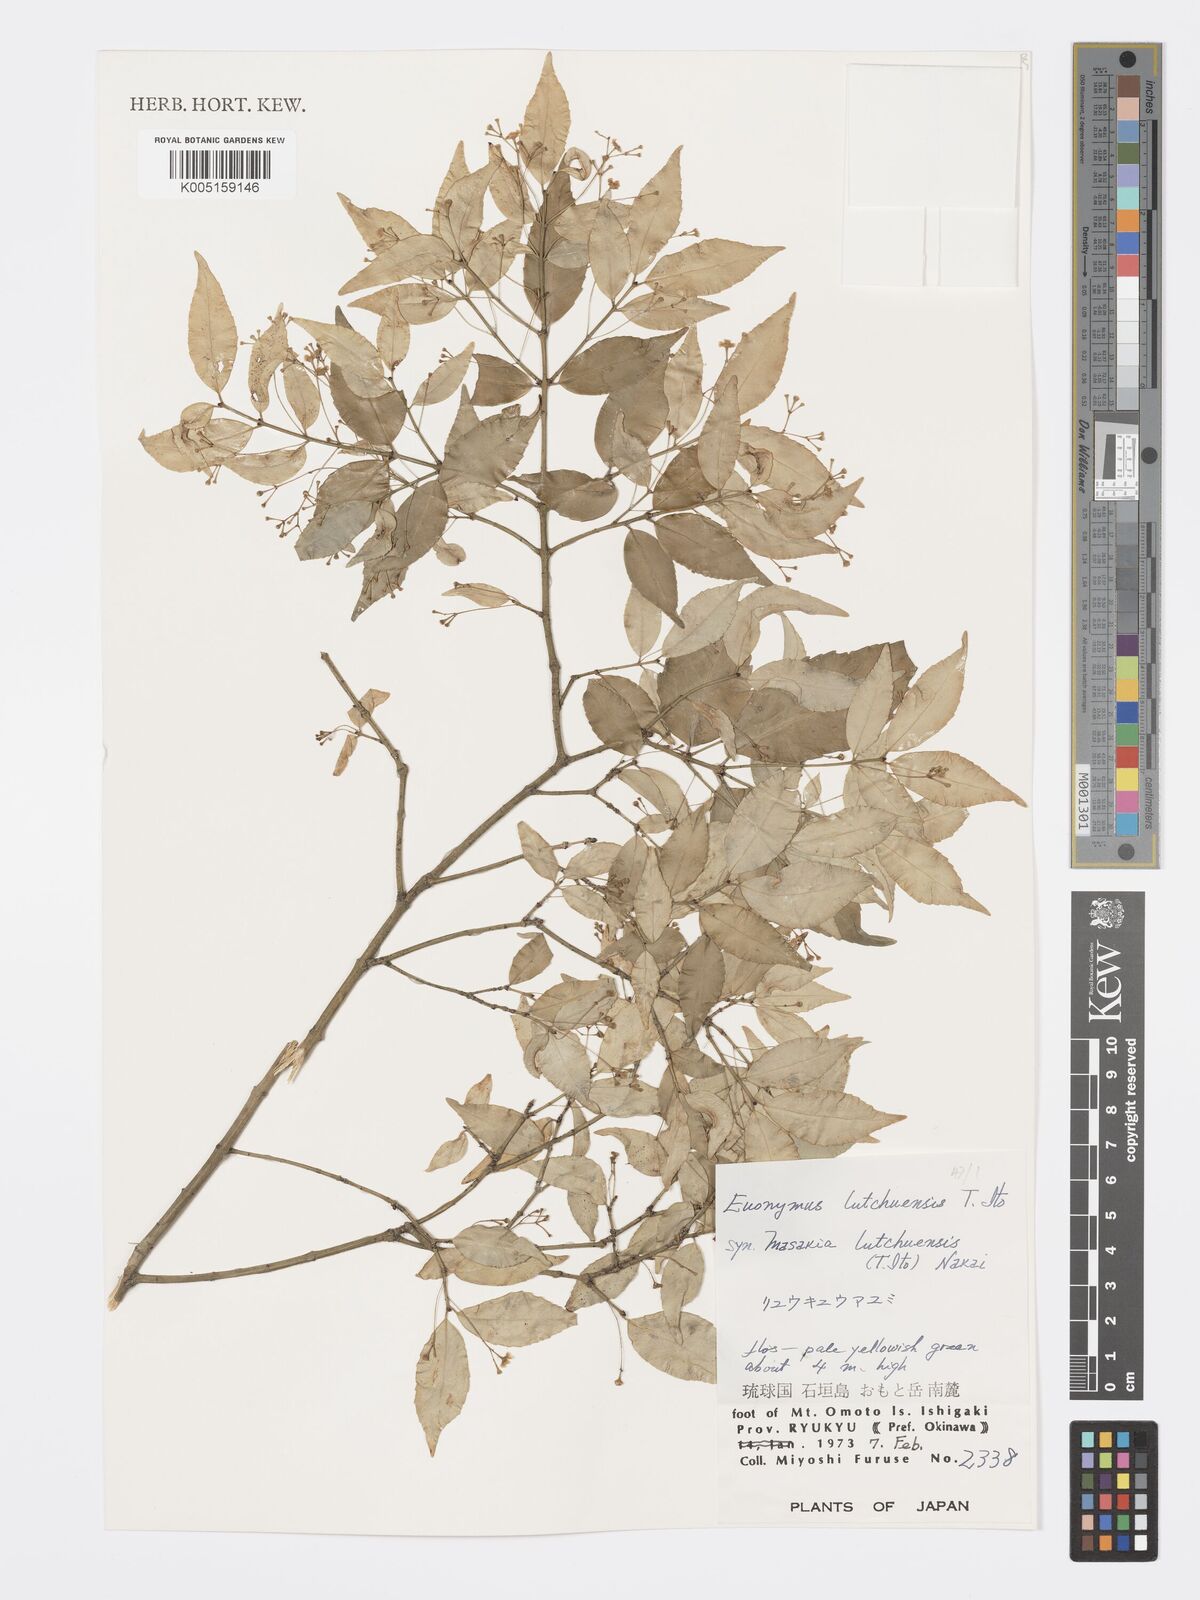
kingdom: Plantae
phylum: Tracheophyta
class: Magnoliopsida
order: Celastrales
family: Celastraceae
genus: Euonymus
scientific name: Euonymus lutchuensis
